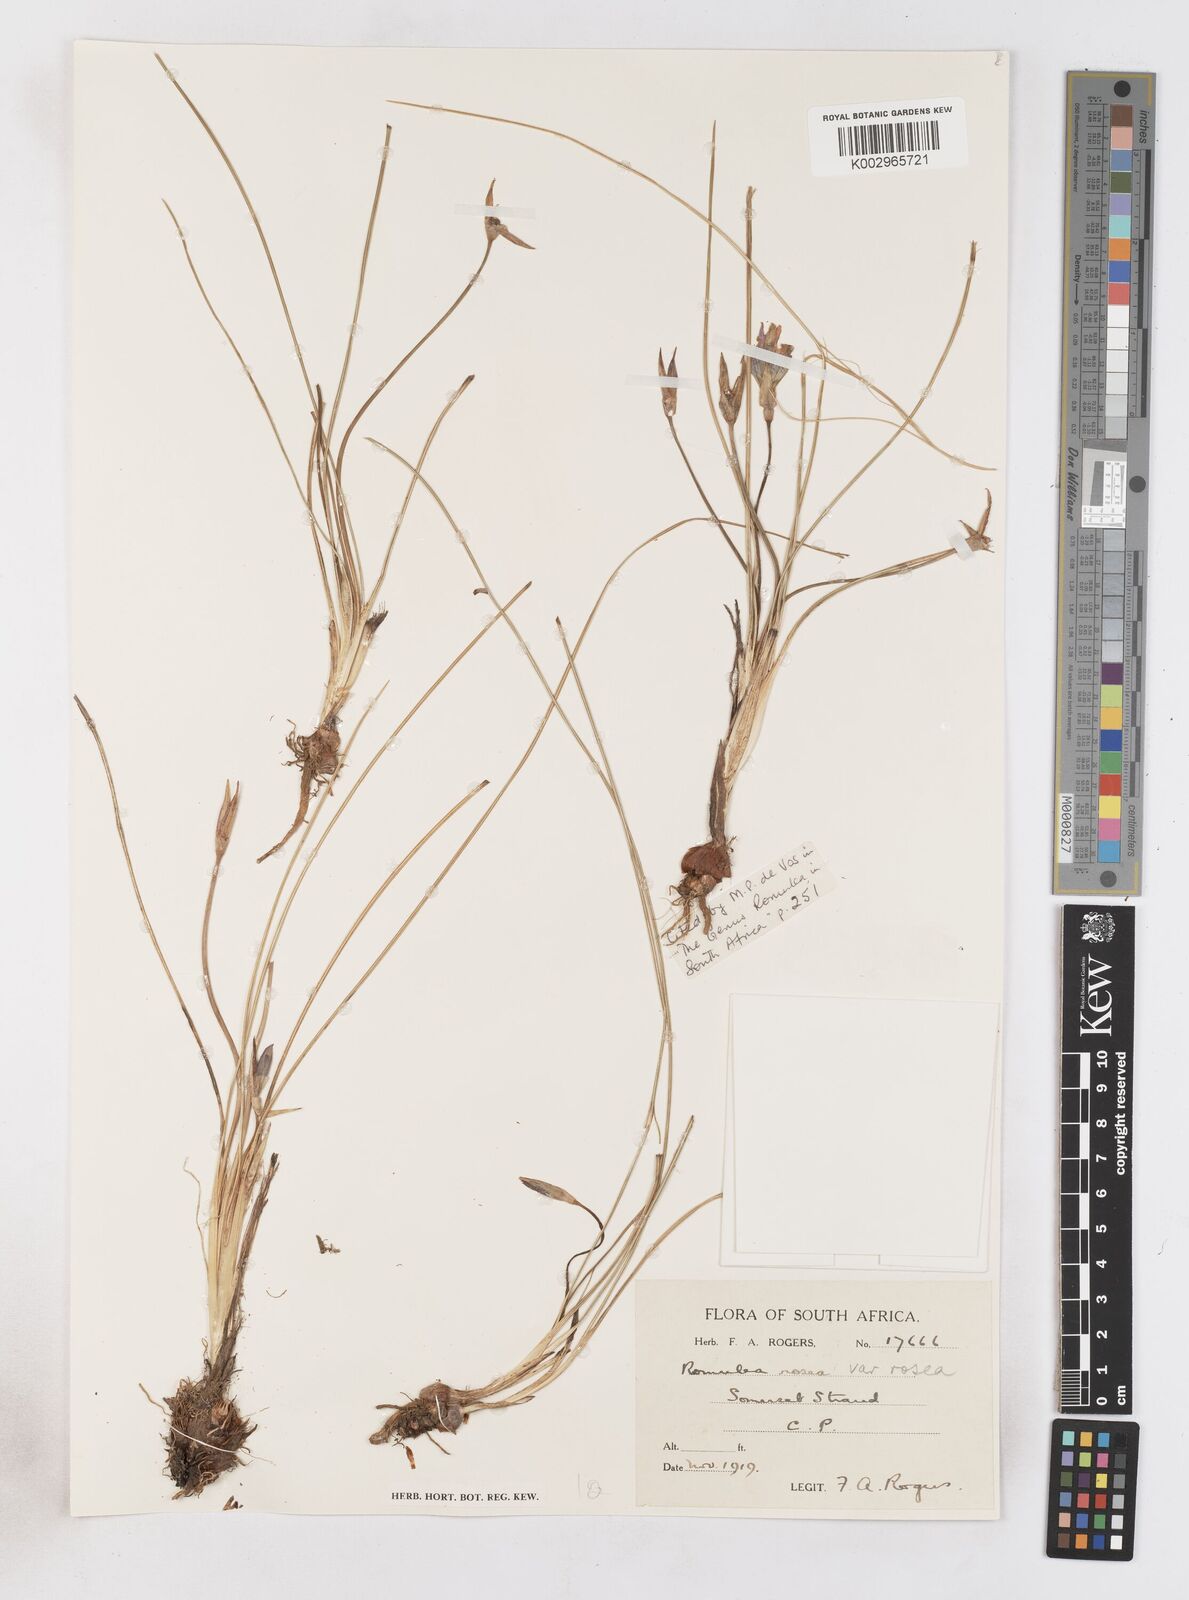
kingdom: Plantae
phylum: Tracheophyta
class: Liliopsida
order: Asparagales
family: Iridaceae
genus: Romulea
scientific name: Romulea rosea
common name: Oniongrass
